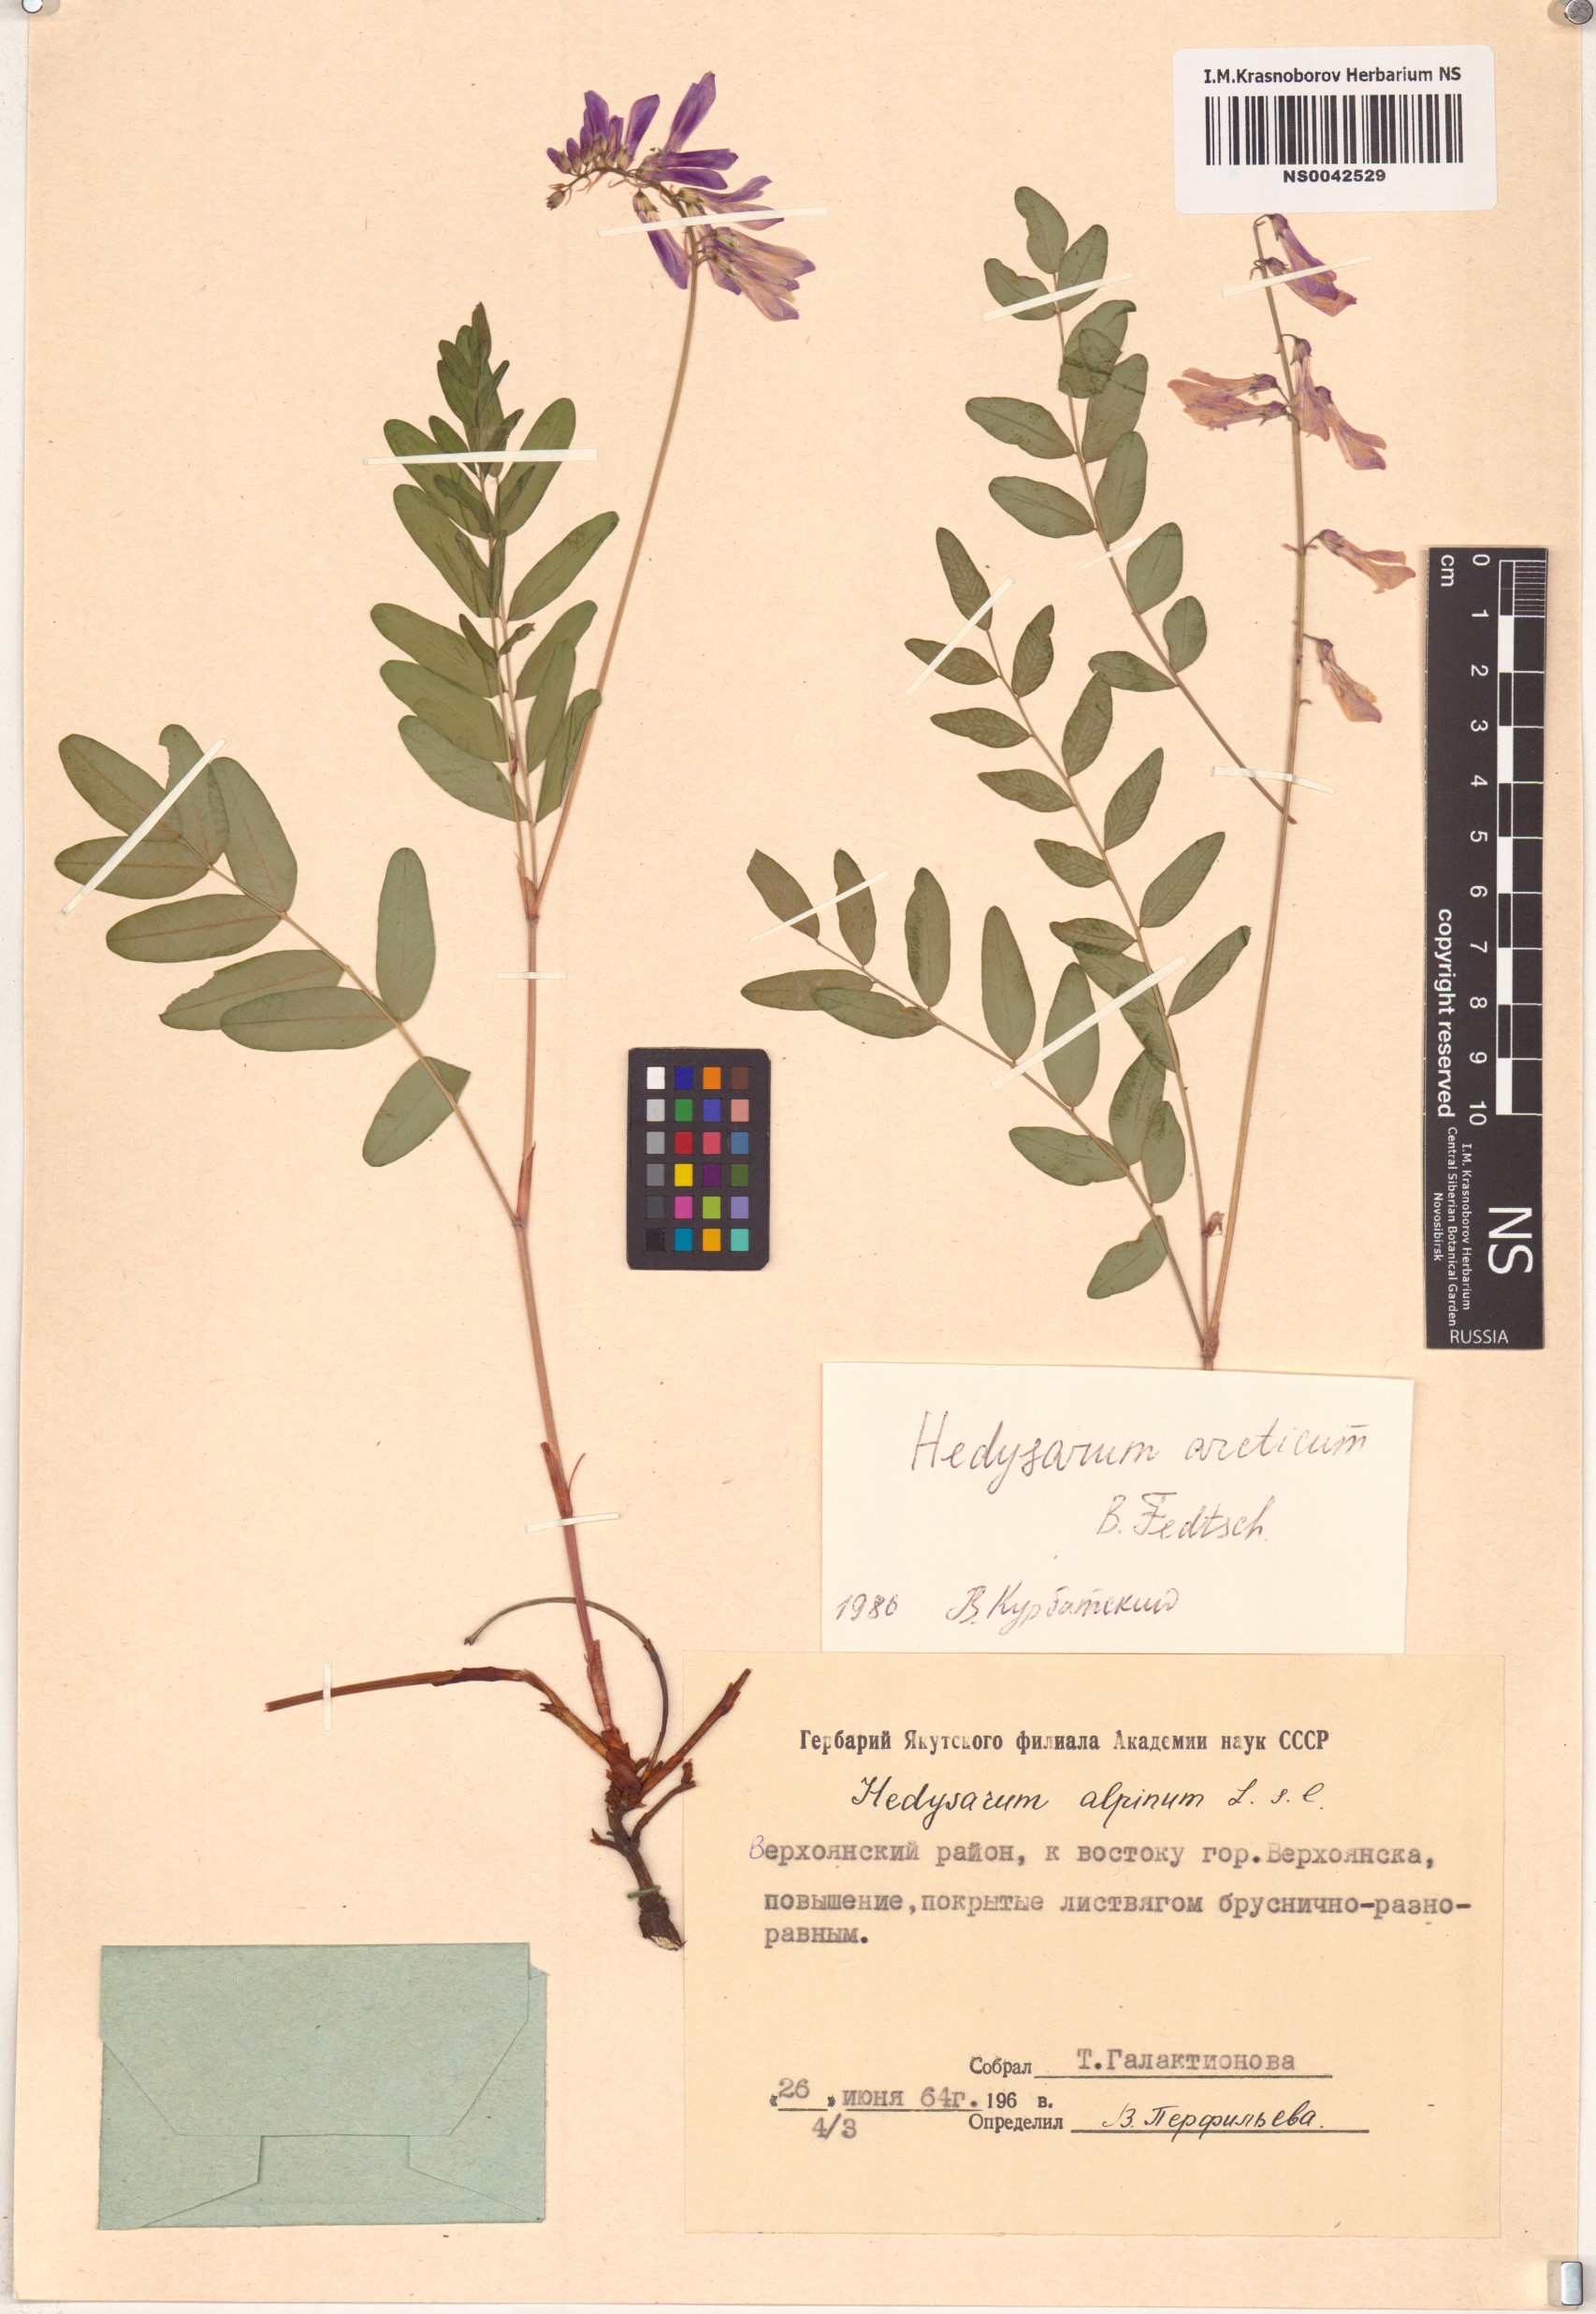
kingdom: Plantae
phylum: Tracheophyta
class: Magnoliopsida
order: Fabales
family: Fabaceae
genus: Hedysarum
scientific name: Hedysarum hedysaroides
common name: Alpine french-honeysuckle
